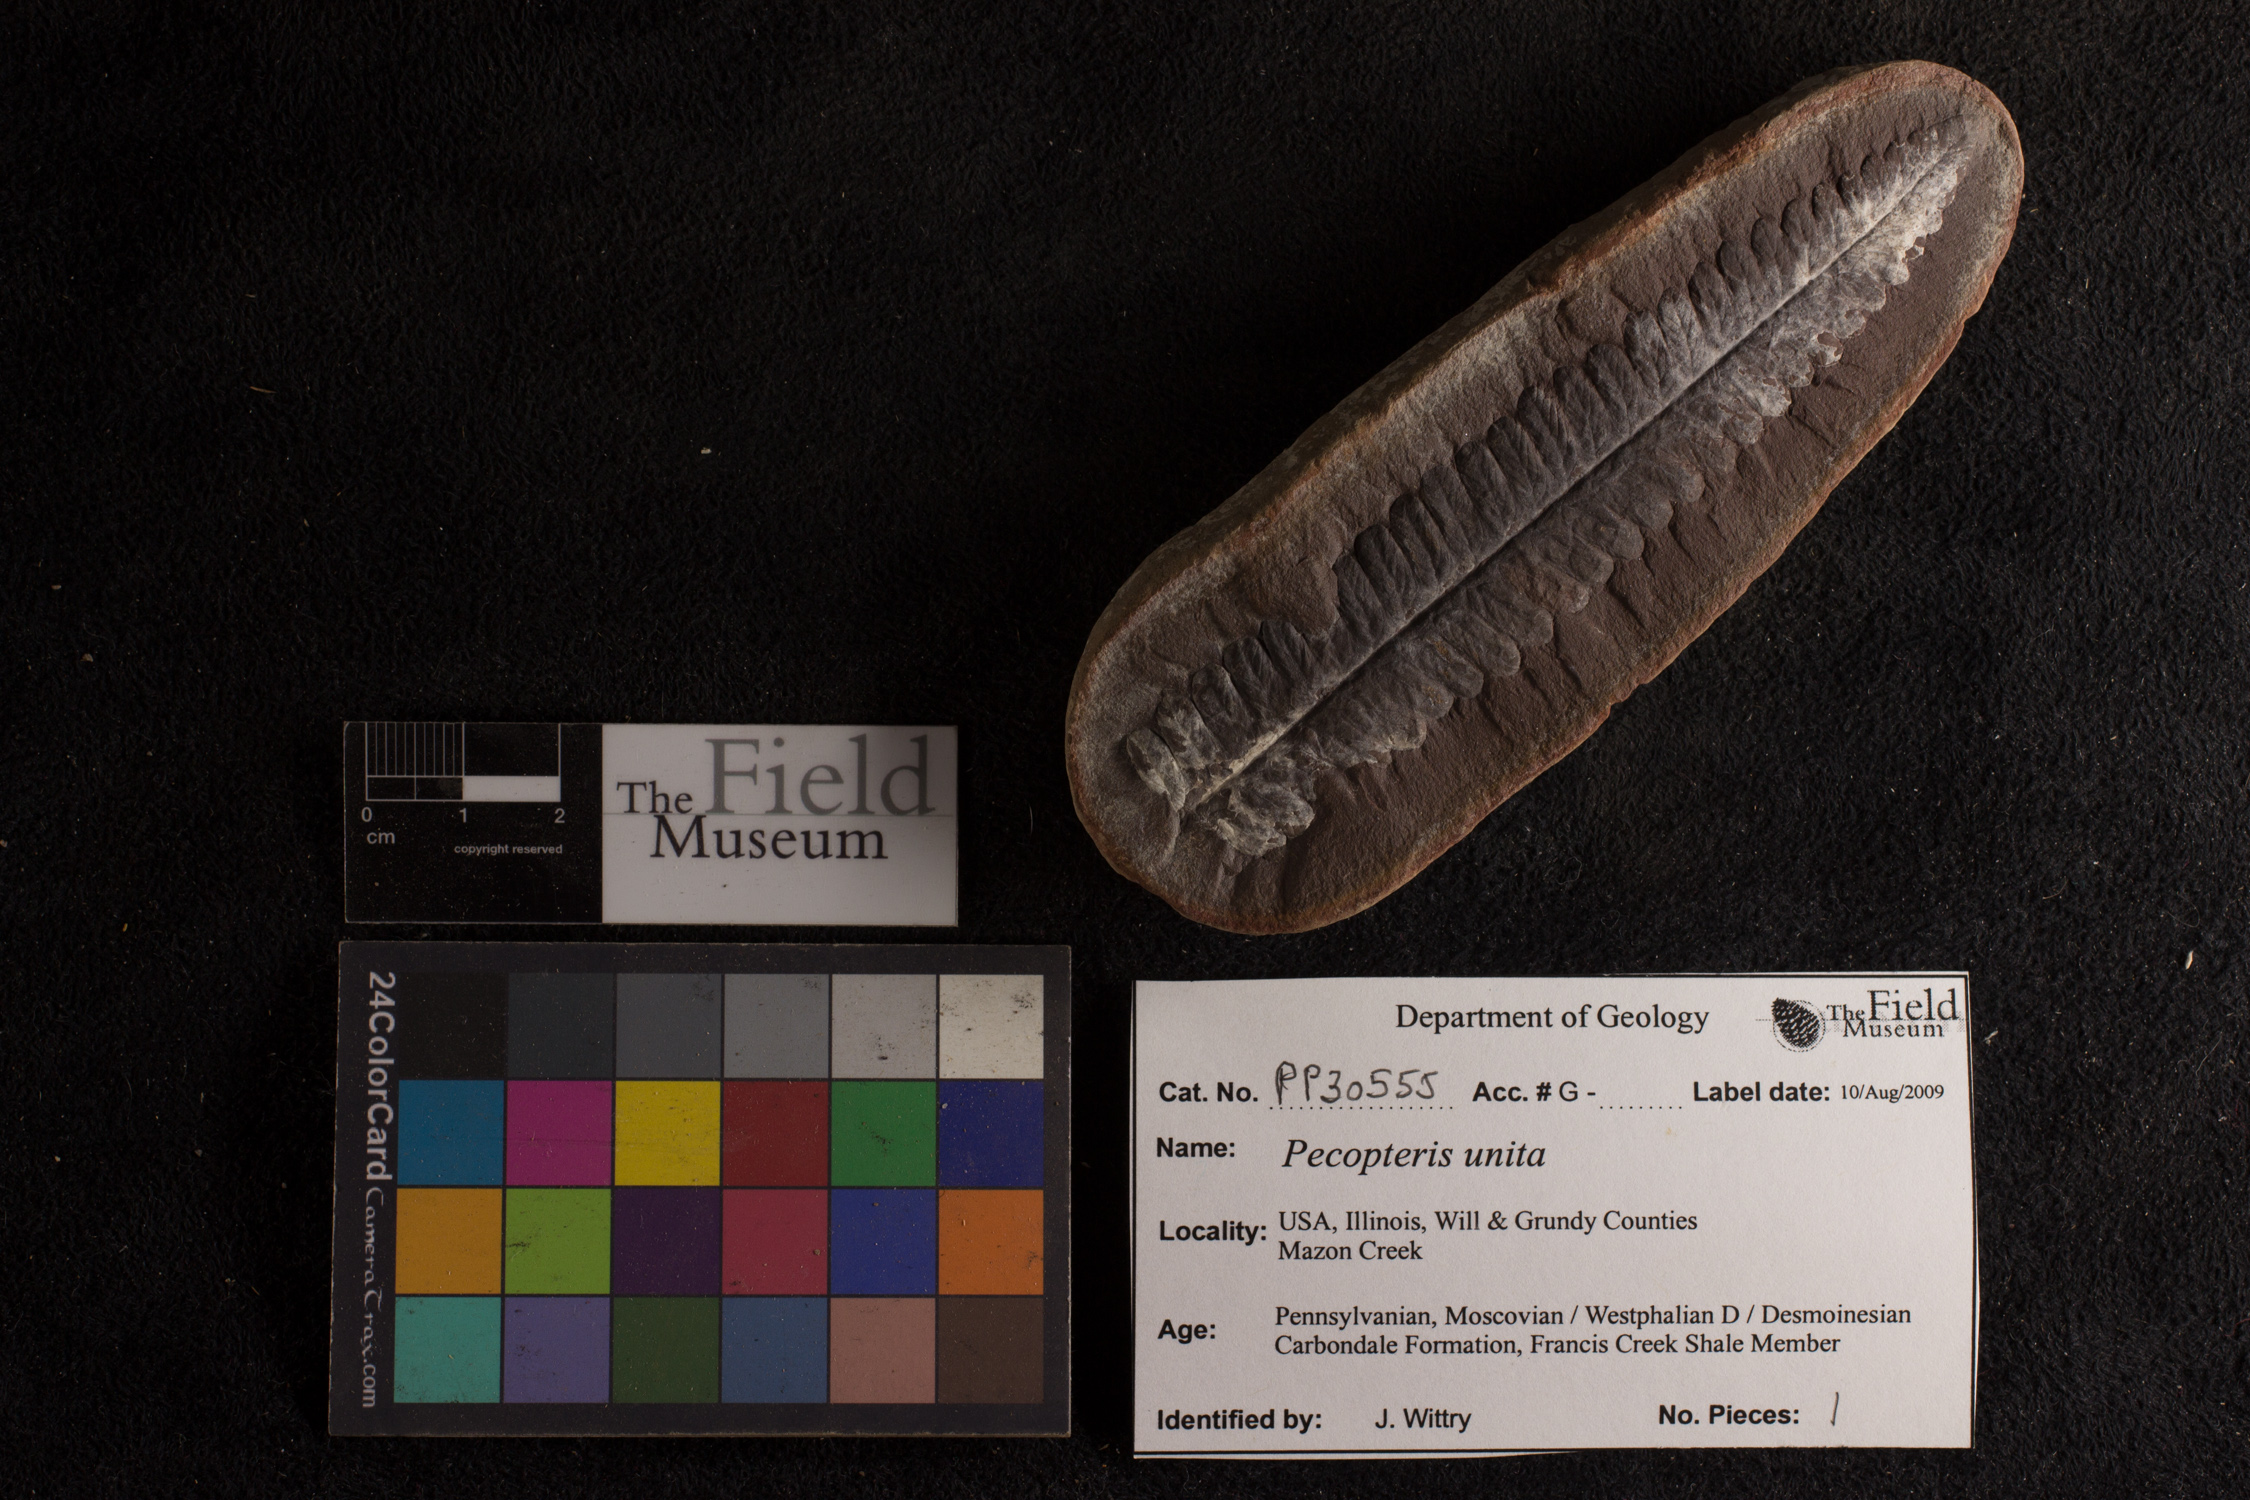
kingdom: Plantae
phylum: Tracheophyta
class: Polypodiopsida
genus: Diplazites
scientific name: Diplazites
